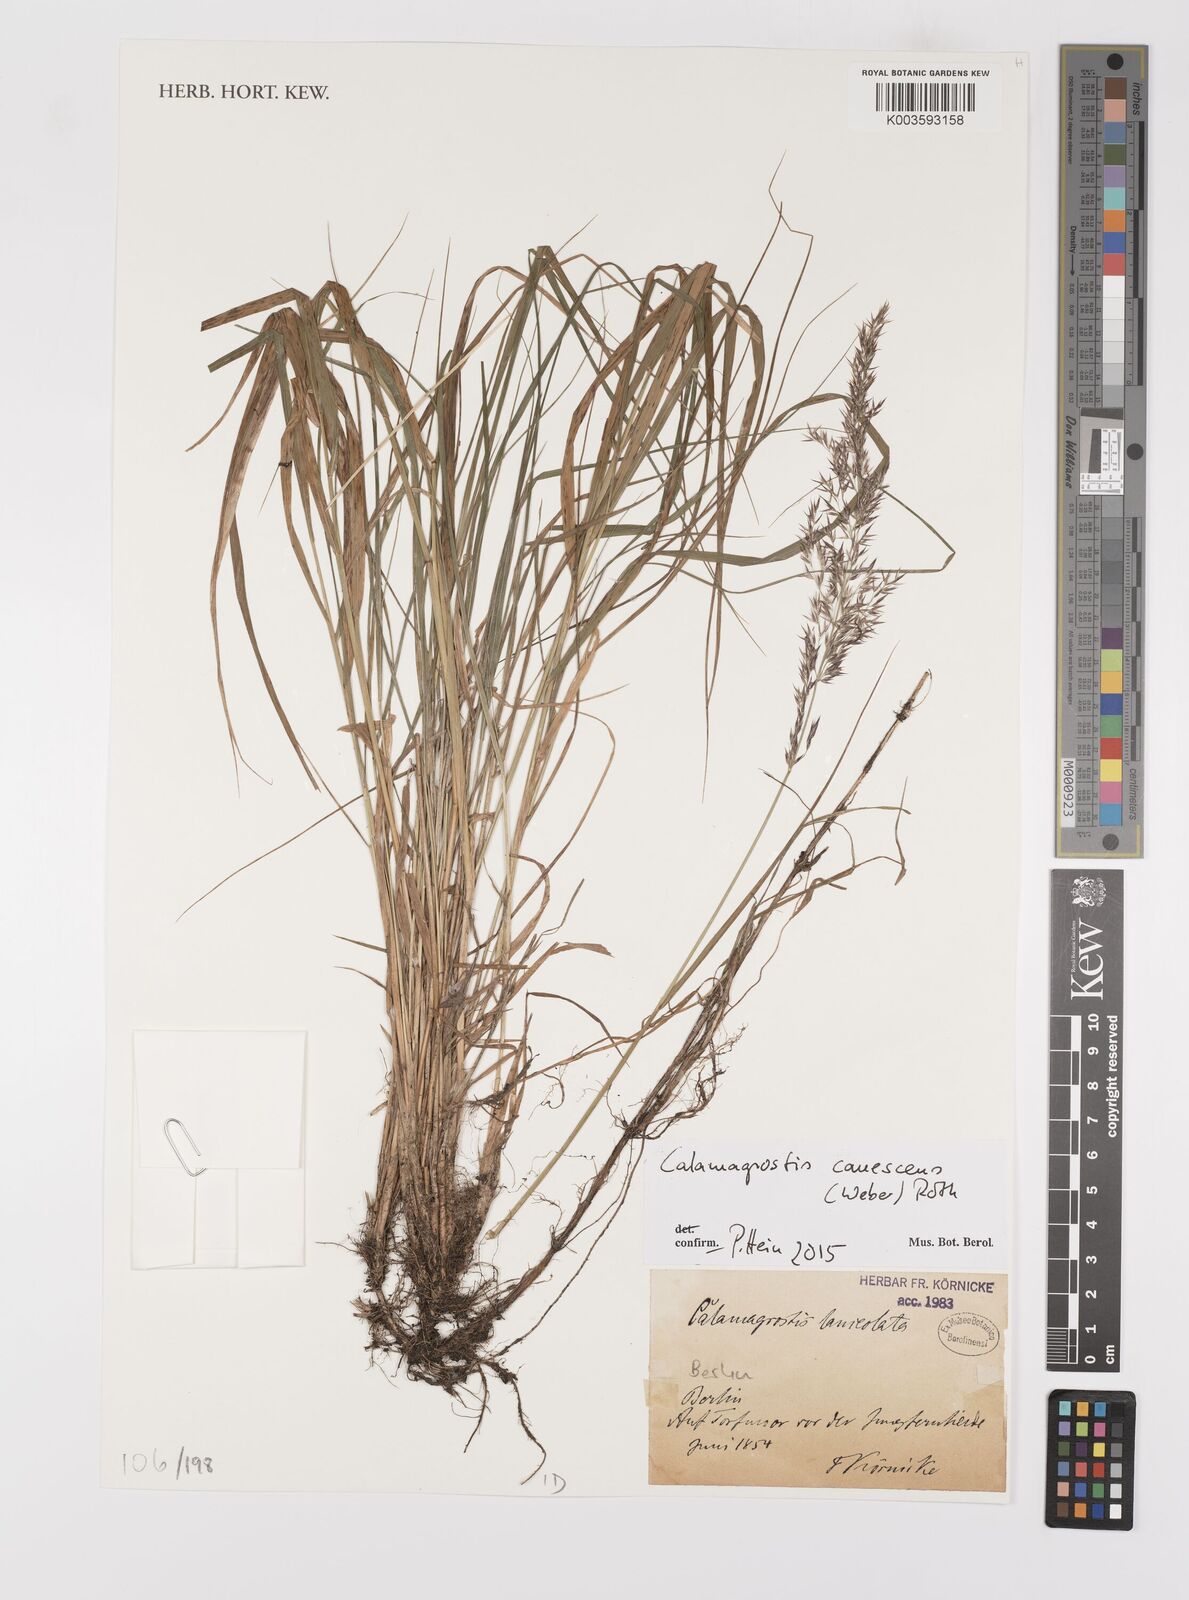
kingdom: Plantae
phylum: Tracheophyta
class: Liliopsida
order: Poales
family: Poaceae
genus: Calamagrostis
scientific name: Calamagrostis
